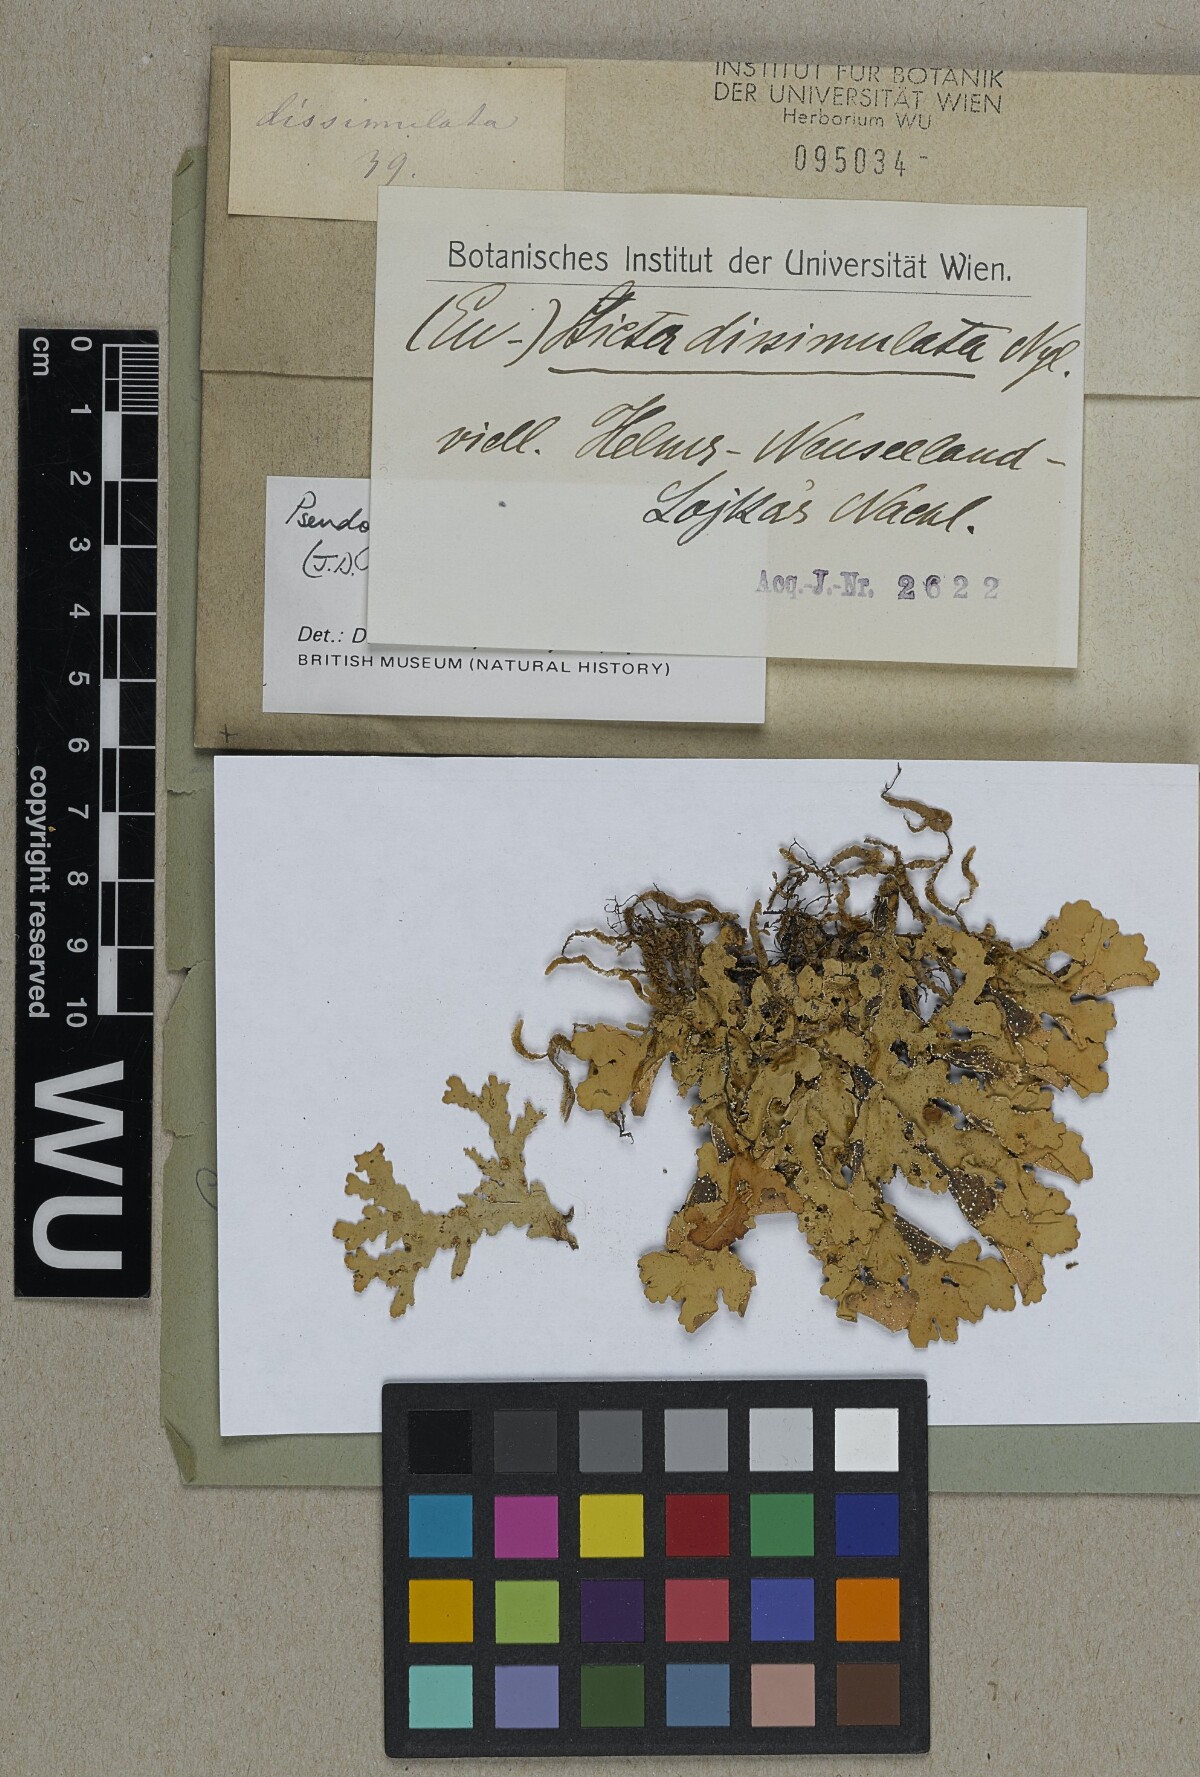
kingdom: Fungi
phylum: Ascomycota
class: Lecanoromycetes
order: Peltigerales
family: Lobariaceae
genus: Pseudocyphellaria
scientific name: Pseudocyphellaria glabra
